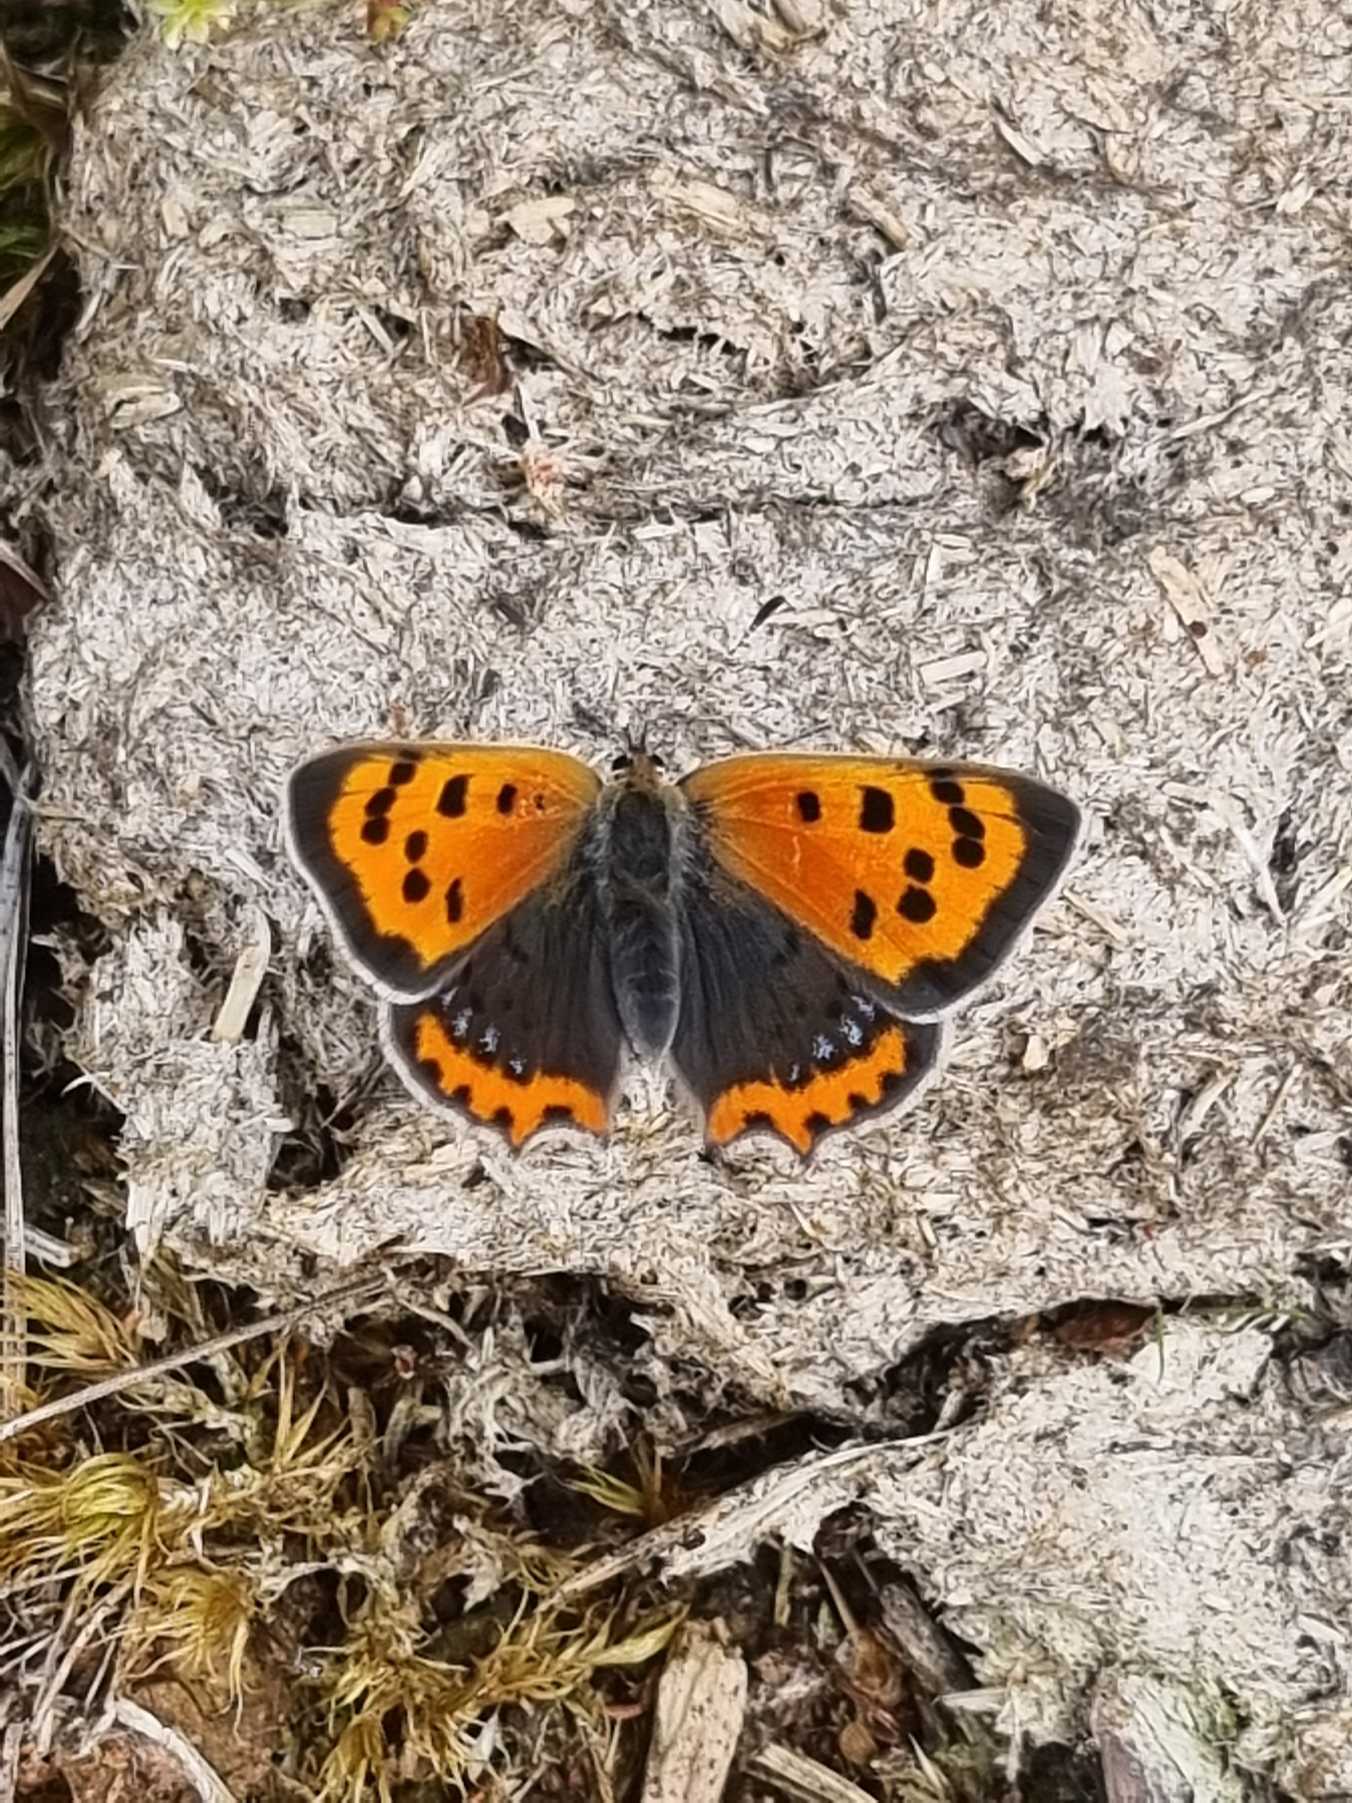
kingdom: Animalia
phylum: Arthropoda
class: Insecta
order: Lepidoptera
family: Lycaenidae
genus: Lycaena
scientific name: Lycaena phlaeas
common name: Lille ildfugl
